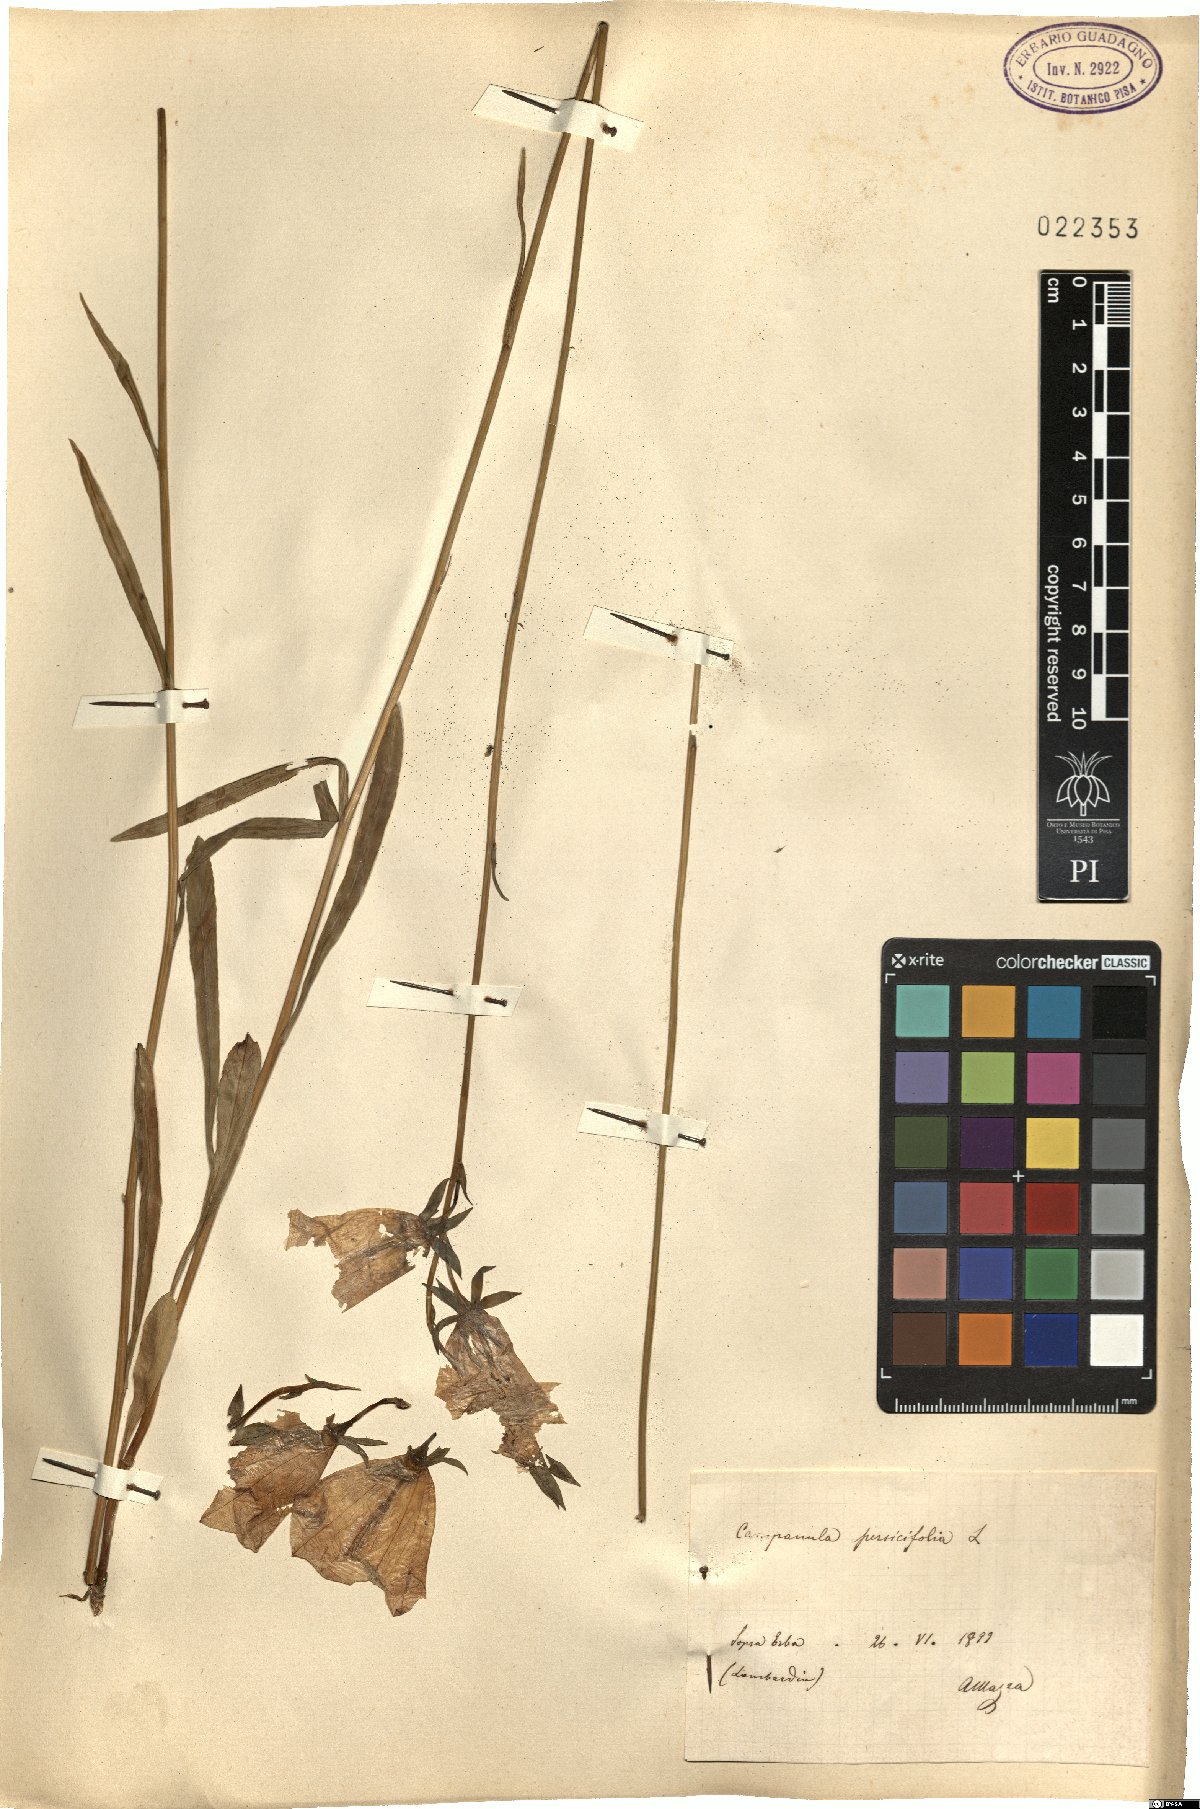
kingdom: Plantae
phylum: Tracheophyta
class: Magnoliopsida
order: Asterales
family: Campanulaceae
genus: Campanula
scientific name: Campanula persicifolia
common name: Peach-leaved bellflower
